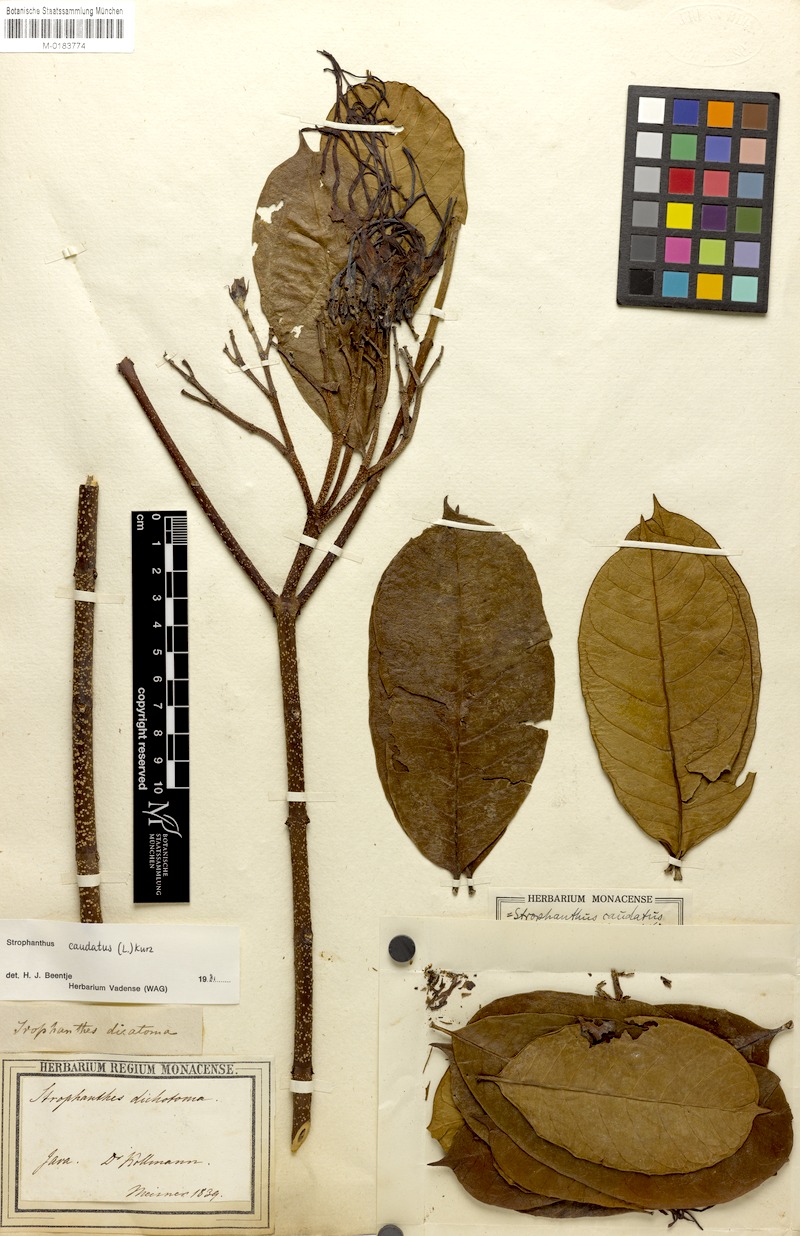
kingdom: Plantae
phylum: Tracheophyta
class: Magnoliopsida
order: Gentianales
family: Apocynaceae
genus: Strophanthus
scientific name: Strophanthus caudatus
